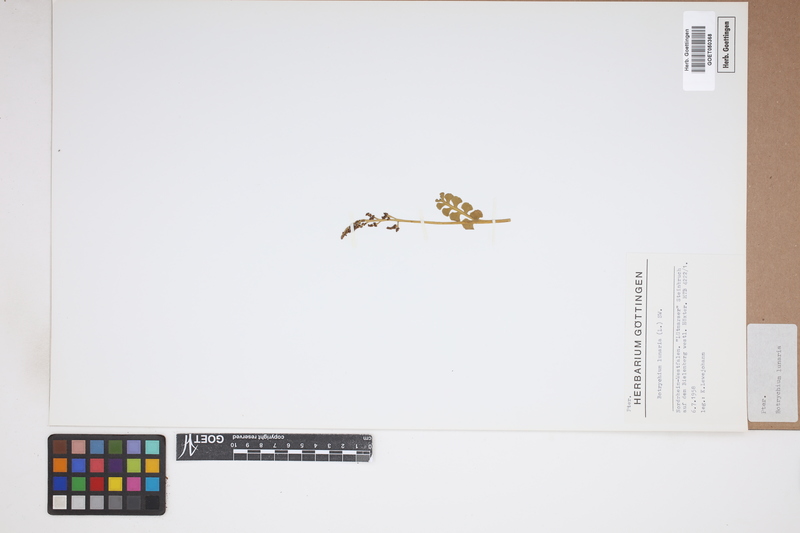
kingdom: Plantae
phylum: Tracheophyta
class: Polypodiopsida
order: Ophioglossales
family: Ophioglossaceae
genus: Botrychium
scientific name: Botrychium lunaria
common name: Moonwort
